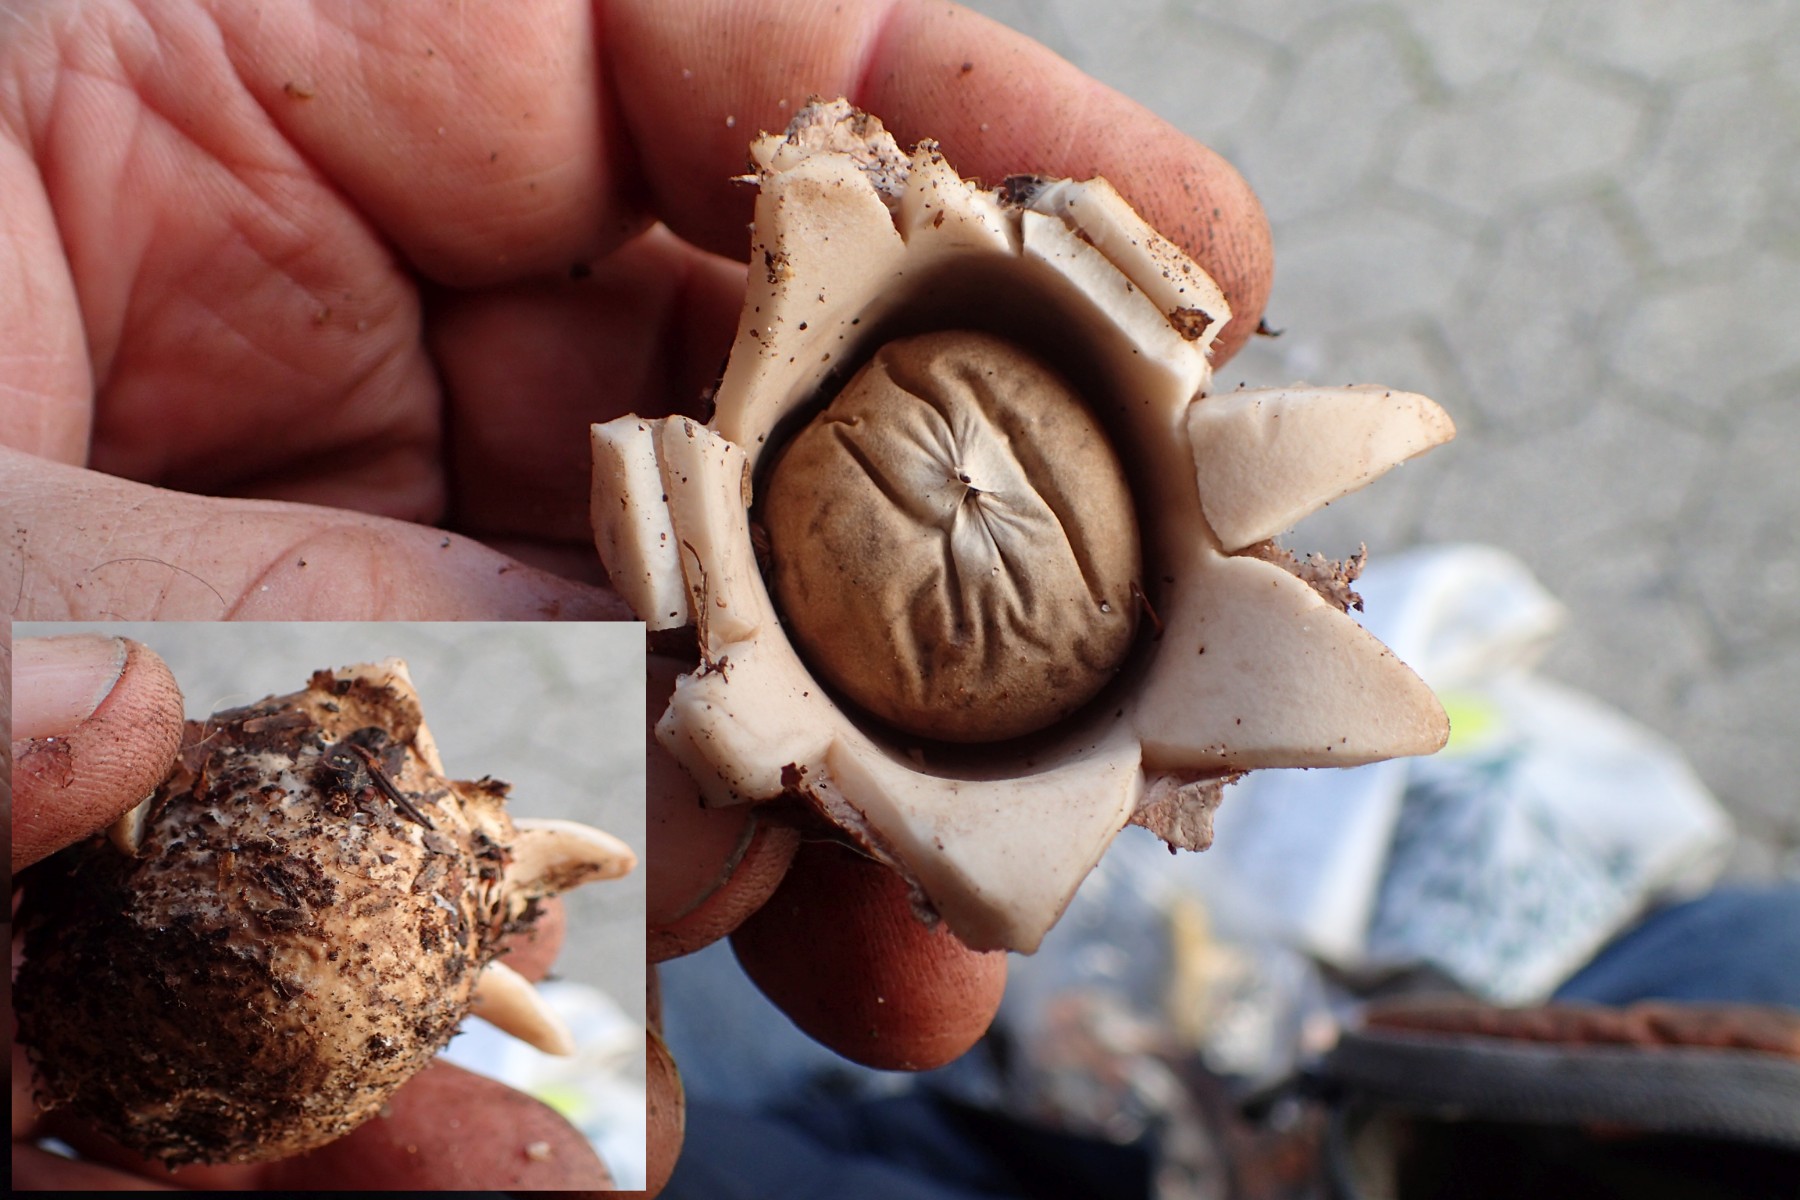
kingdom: Fungi
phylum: Basidiomycota
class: Agaricomycetes
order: Geastrales
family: Geastraceae
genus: Geastrum
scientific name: Geastrum
